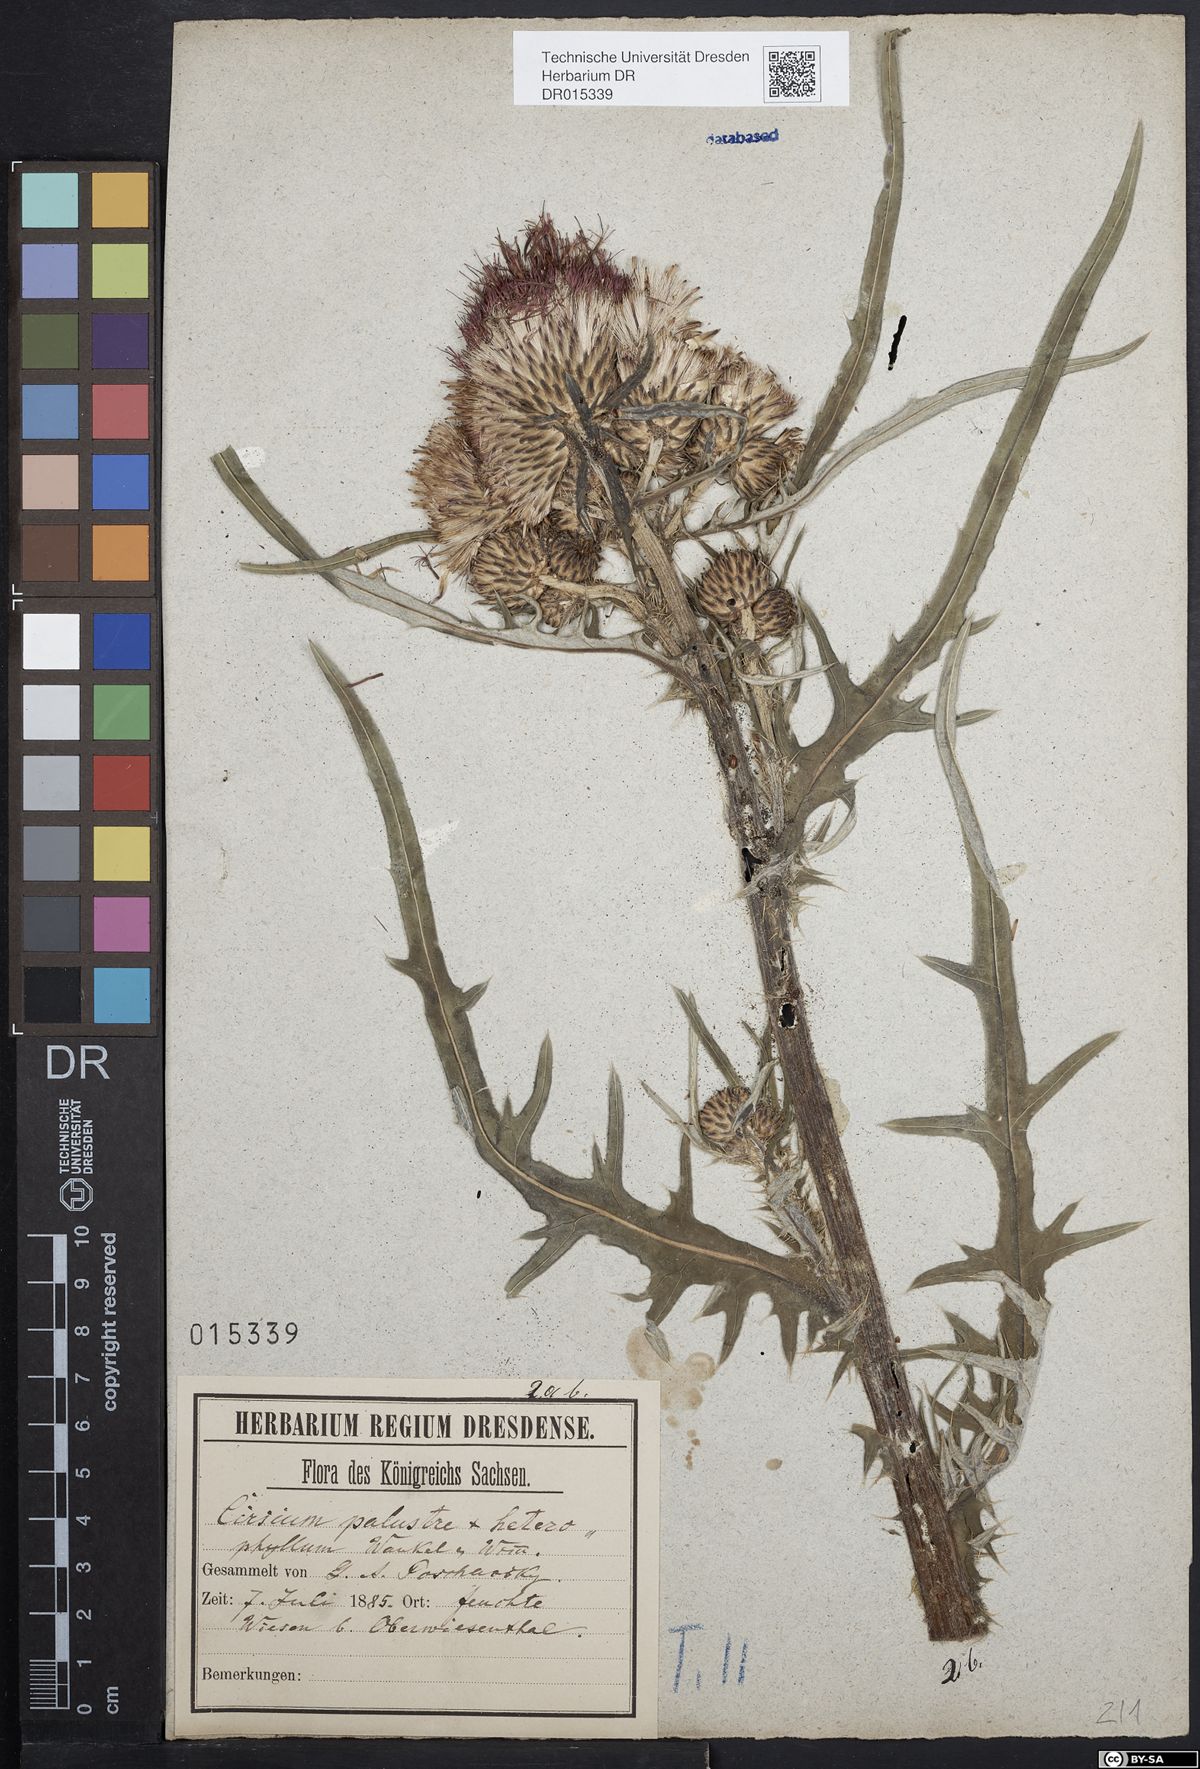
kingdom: Plantae
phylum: Tracheophyta
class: Magnoliopsida
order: Asterales
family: Asteraceae
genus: Cirsium
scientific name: Cirsium wankelii
